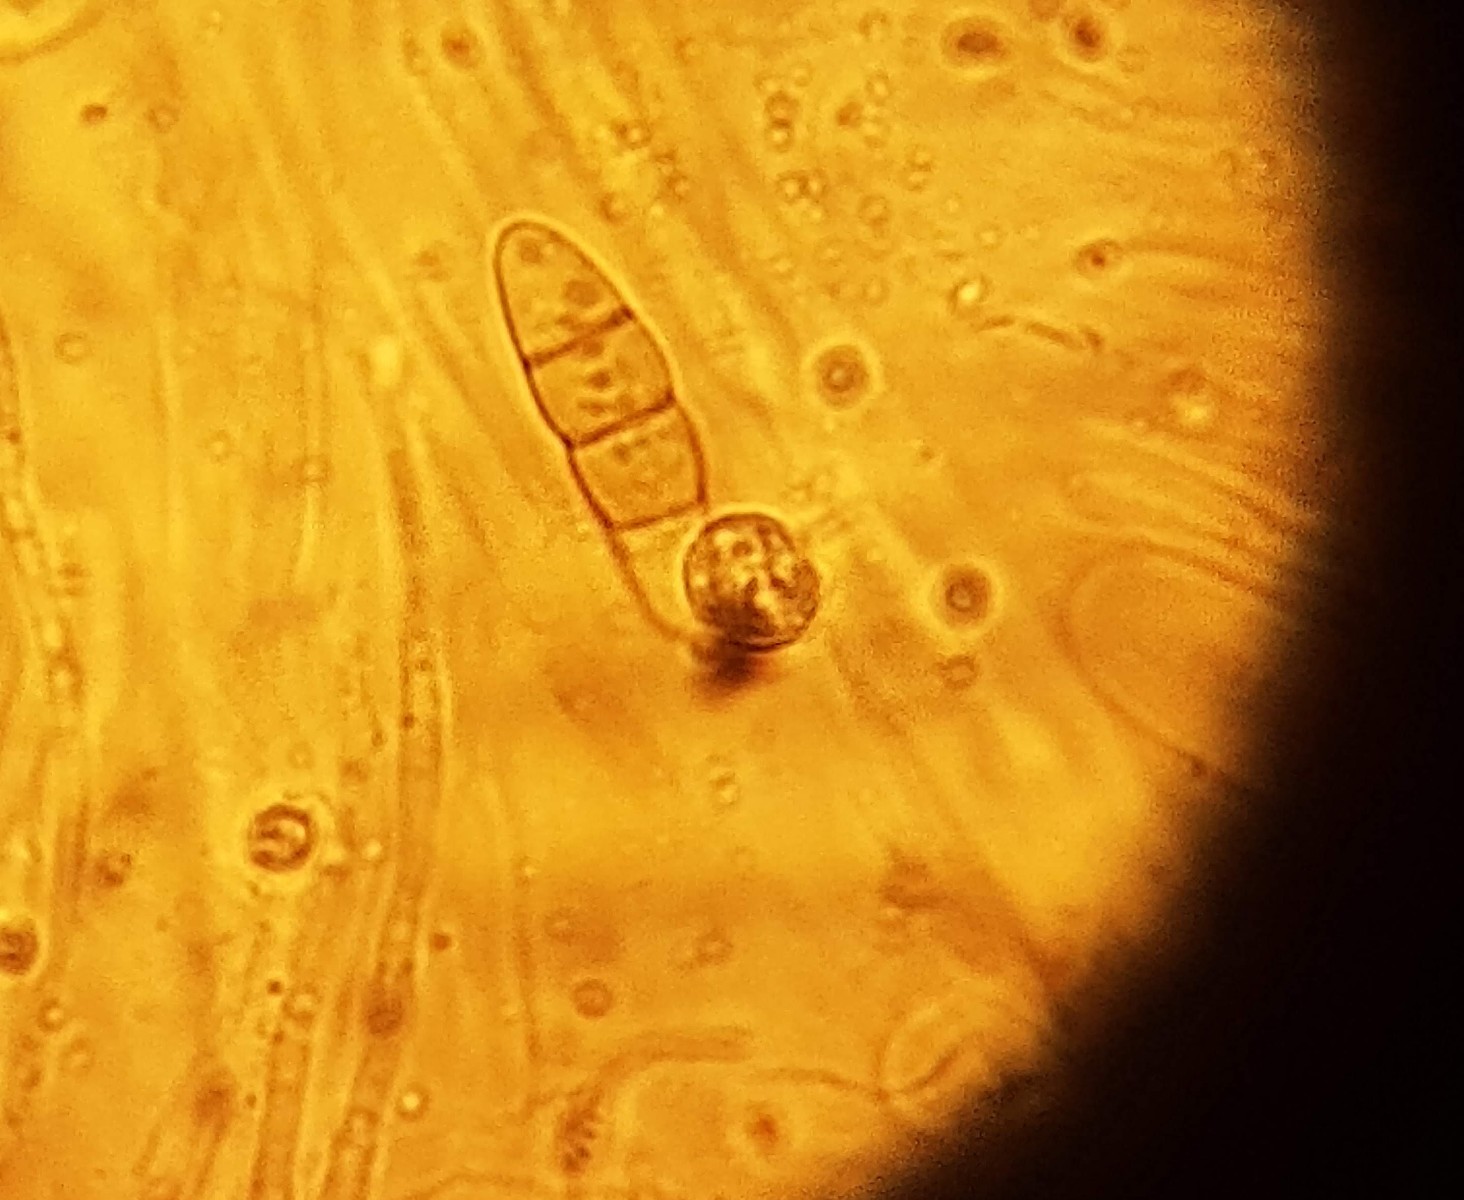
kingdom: Fungi
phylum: Ascomycota
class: Dothideomycetes
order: Pleosporales
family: Melanommataceae
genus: Melanomma
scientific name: Melanomma pulvis-pyrius
